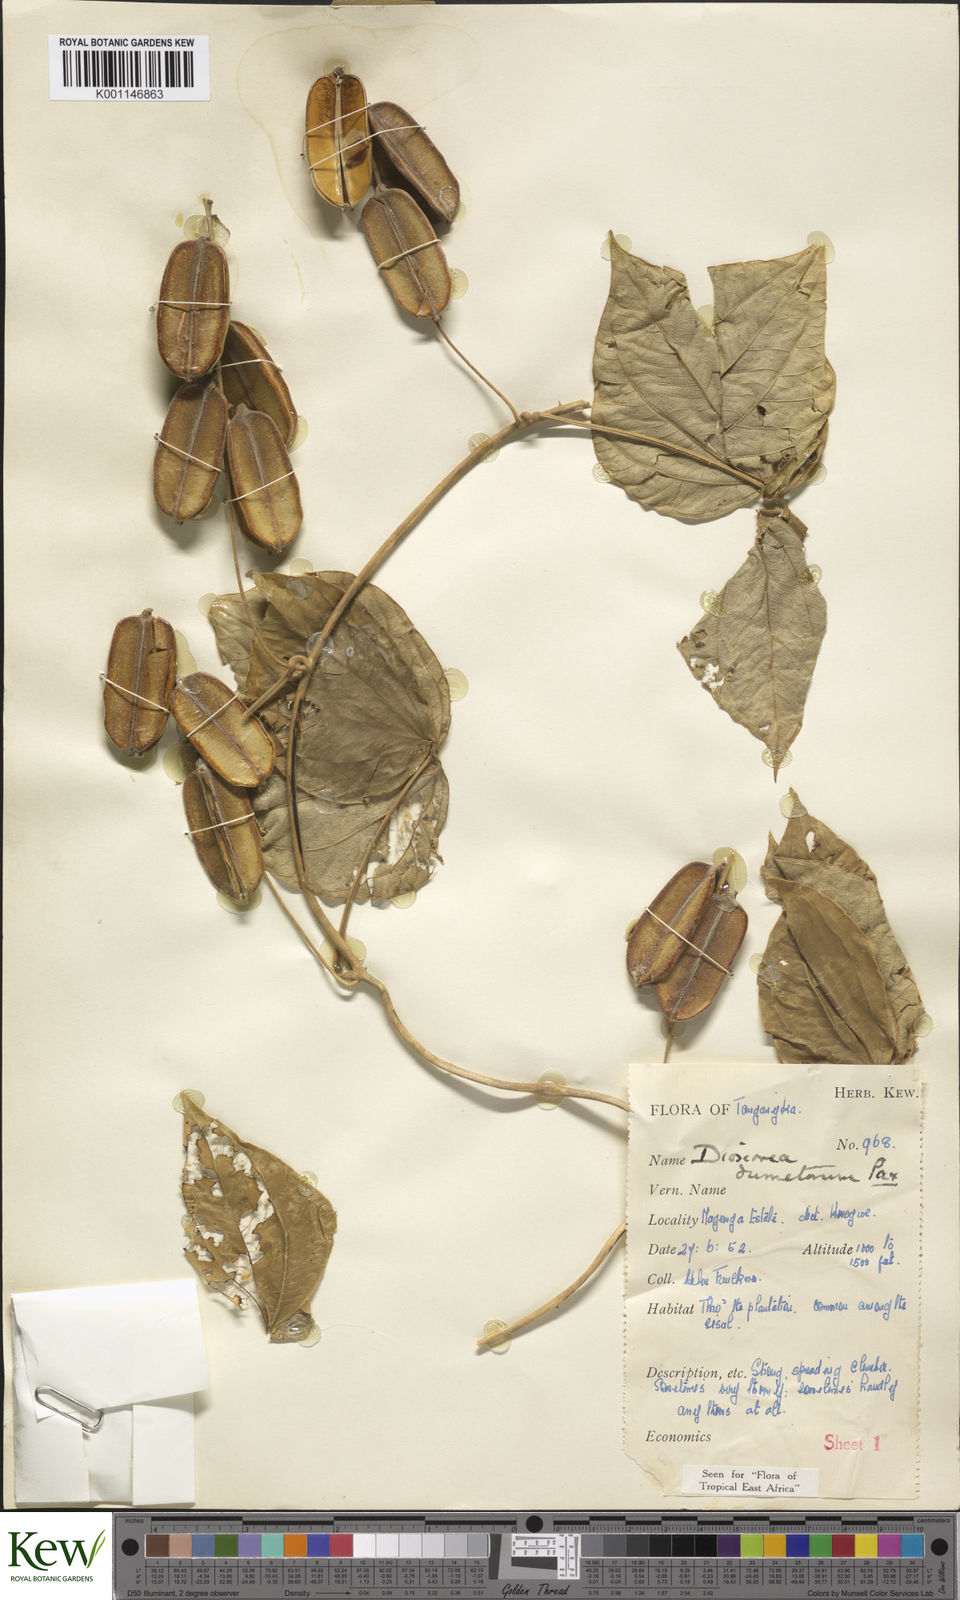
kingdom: Plantae
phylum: Tracheophyta
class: Liliopsida
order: Dioscoreales
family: Dioscoreaceae
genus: Dioscorea
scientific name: Dioscorea dumetorum
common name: African bitter yam
